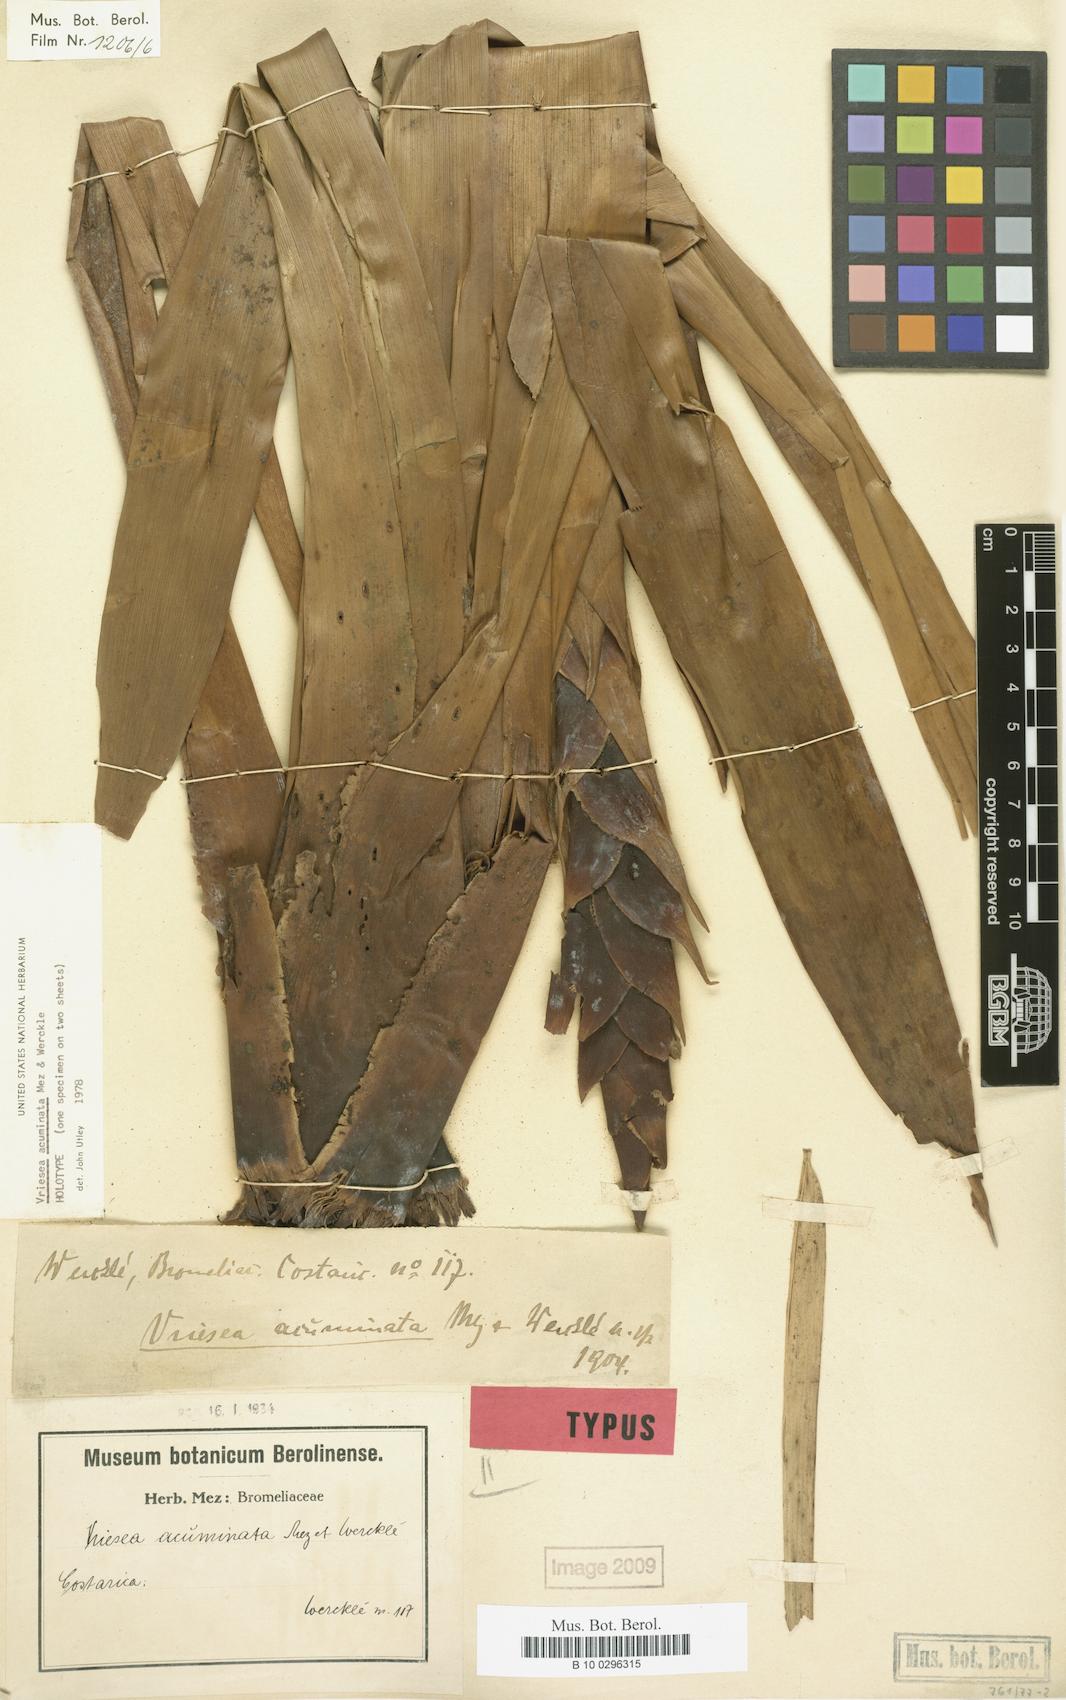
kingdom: Plantae
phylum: Tracheophyta
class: Liliopsida
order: Poales
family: Bromeliaceae
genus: Werauhia
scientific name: Werauhia acuminata
